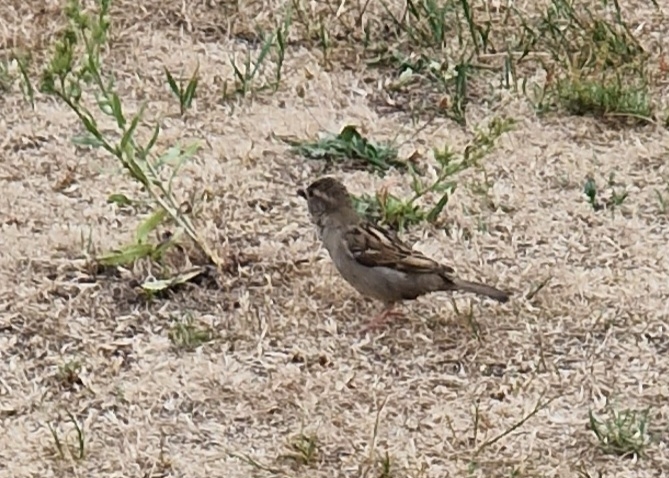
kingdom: Animalia
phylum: Chordata
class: Aves
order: Passeriformes
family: Passeridae
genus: Passer
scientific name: Passer domesticus
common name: Gråspurv
